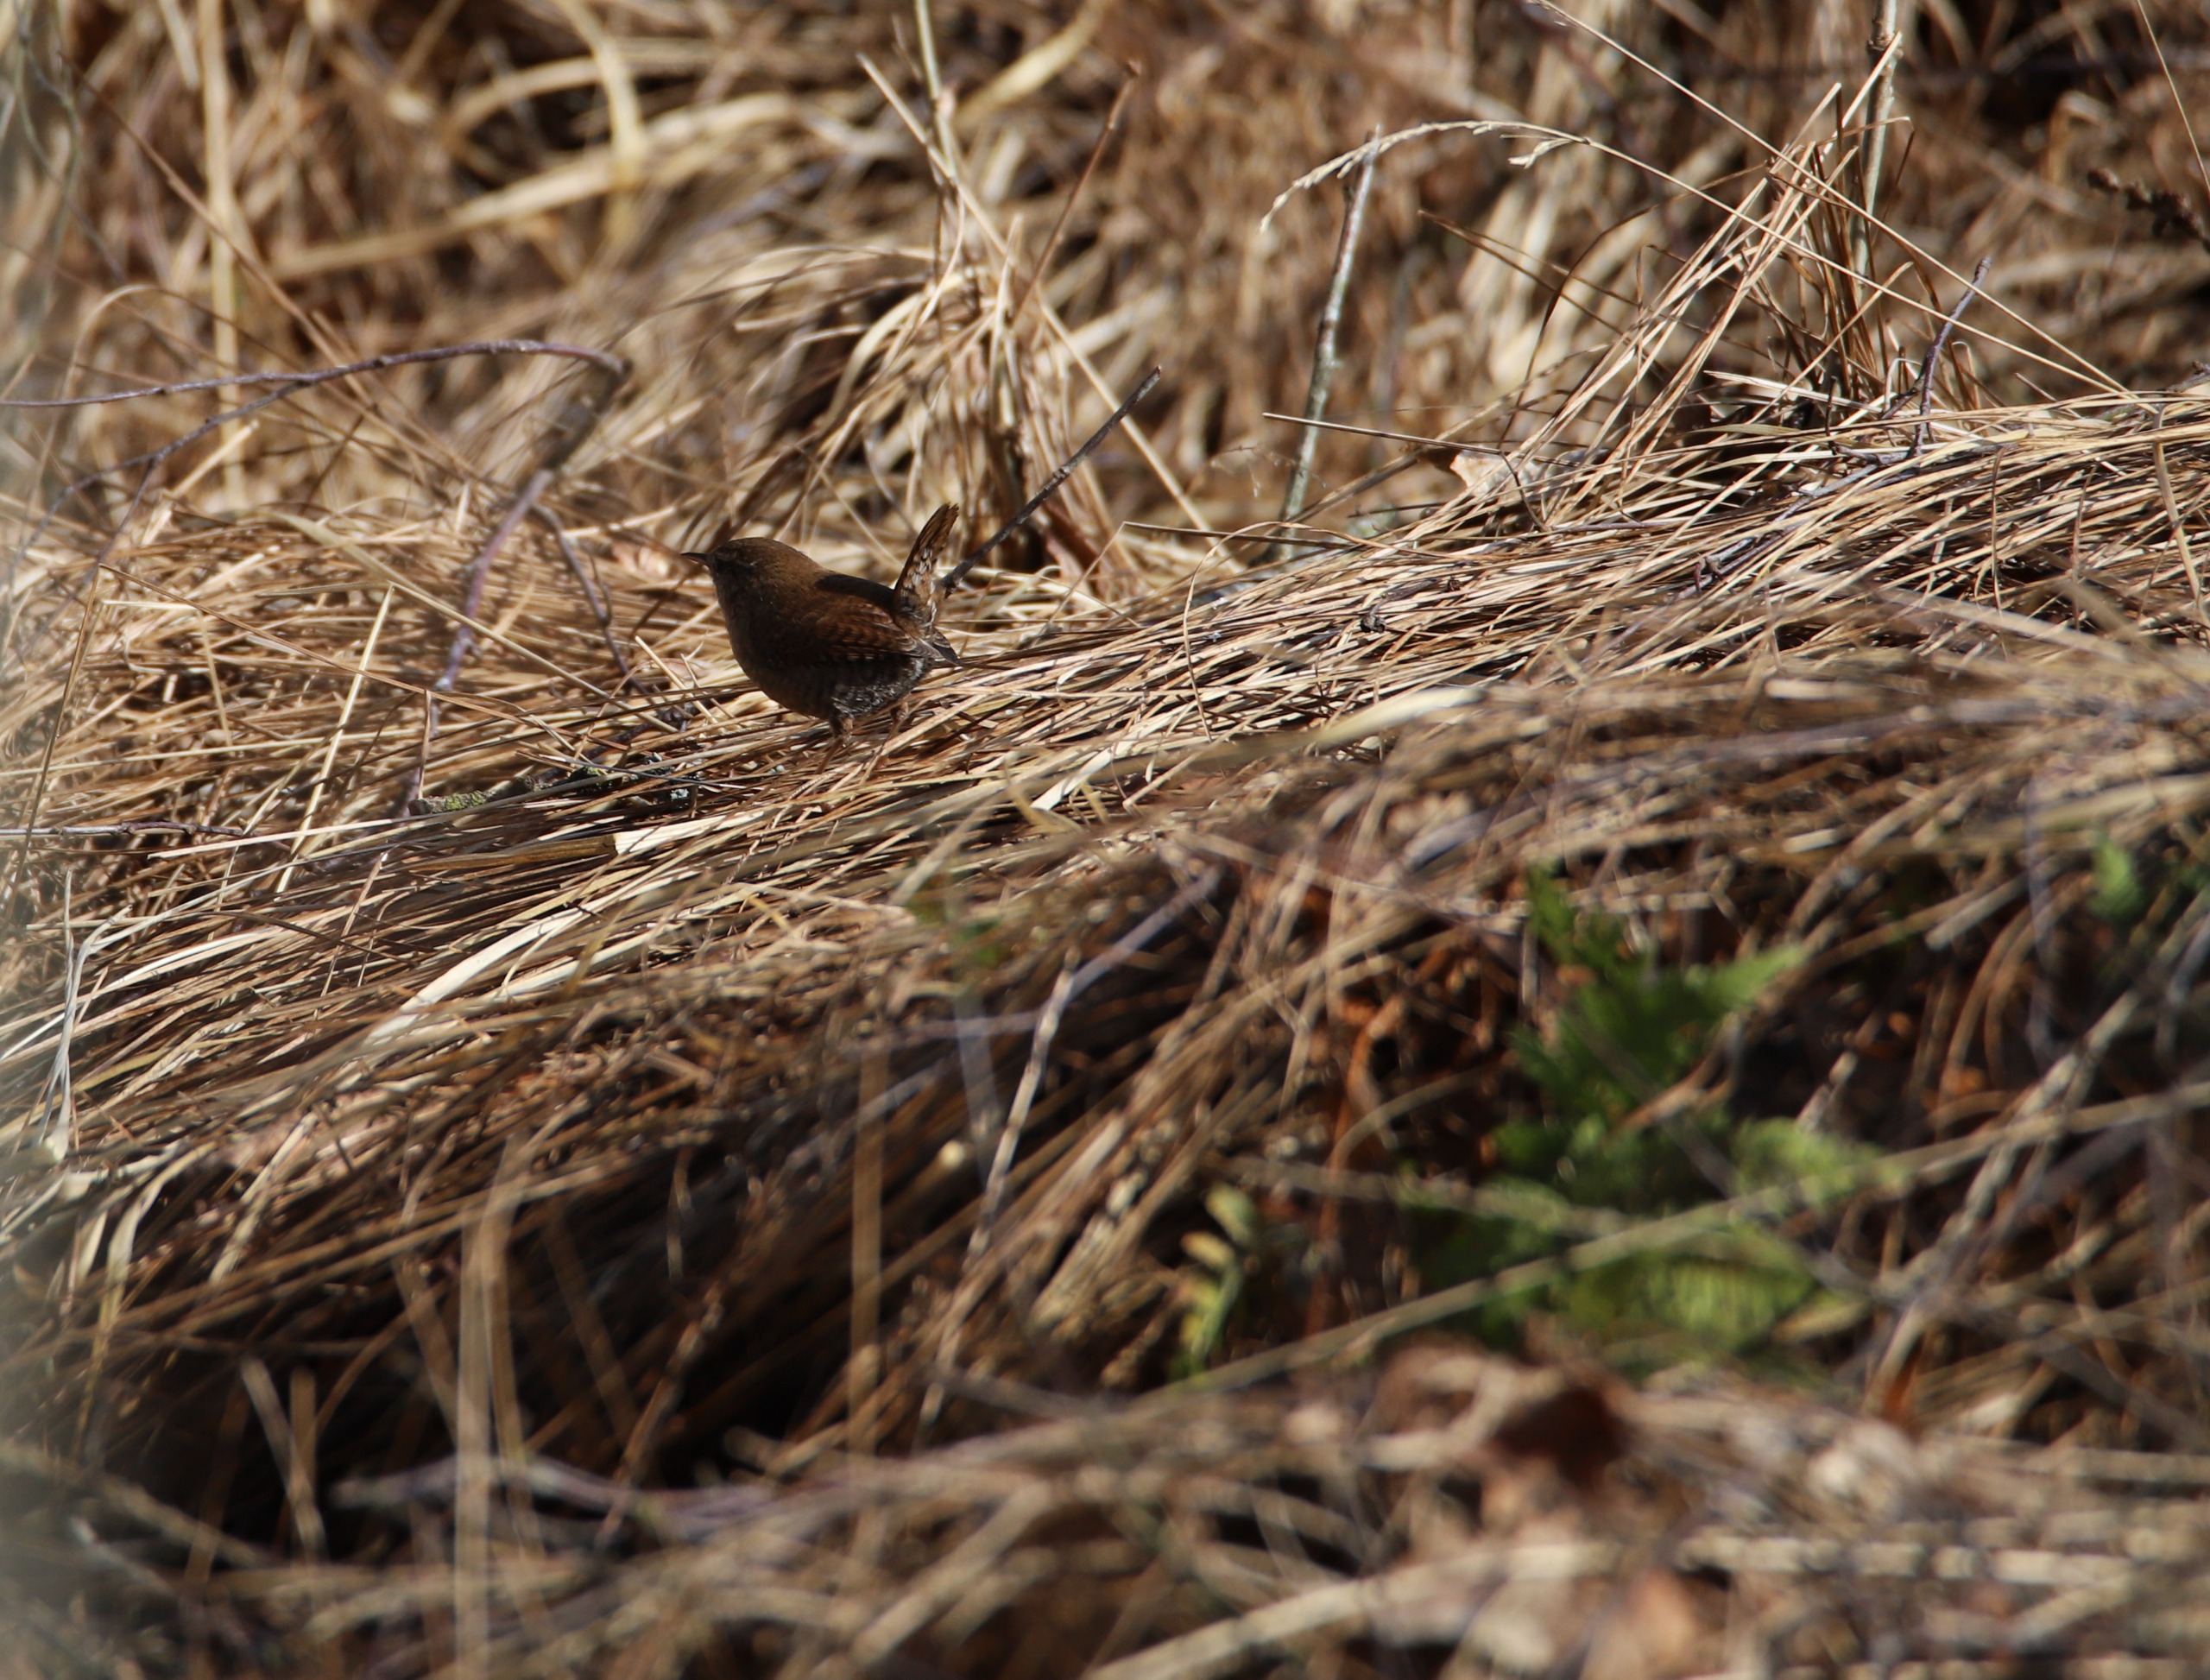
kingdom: Animalia
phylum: Chordata
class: Aves
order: Passeriformes
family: Troglodytidae
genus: Troglodytes
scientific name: Troglodytes troglodytes
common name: Gærdesmutte
